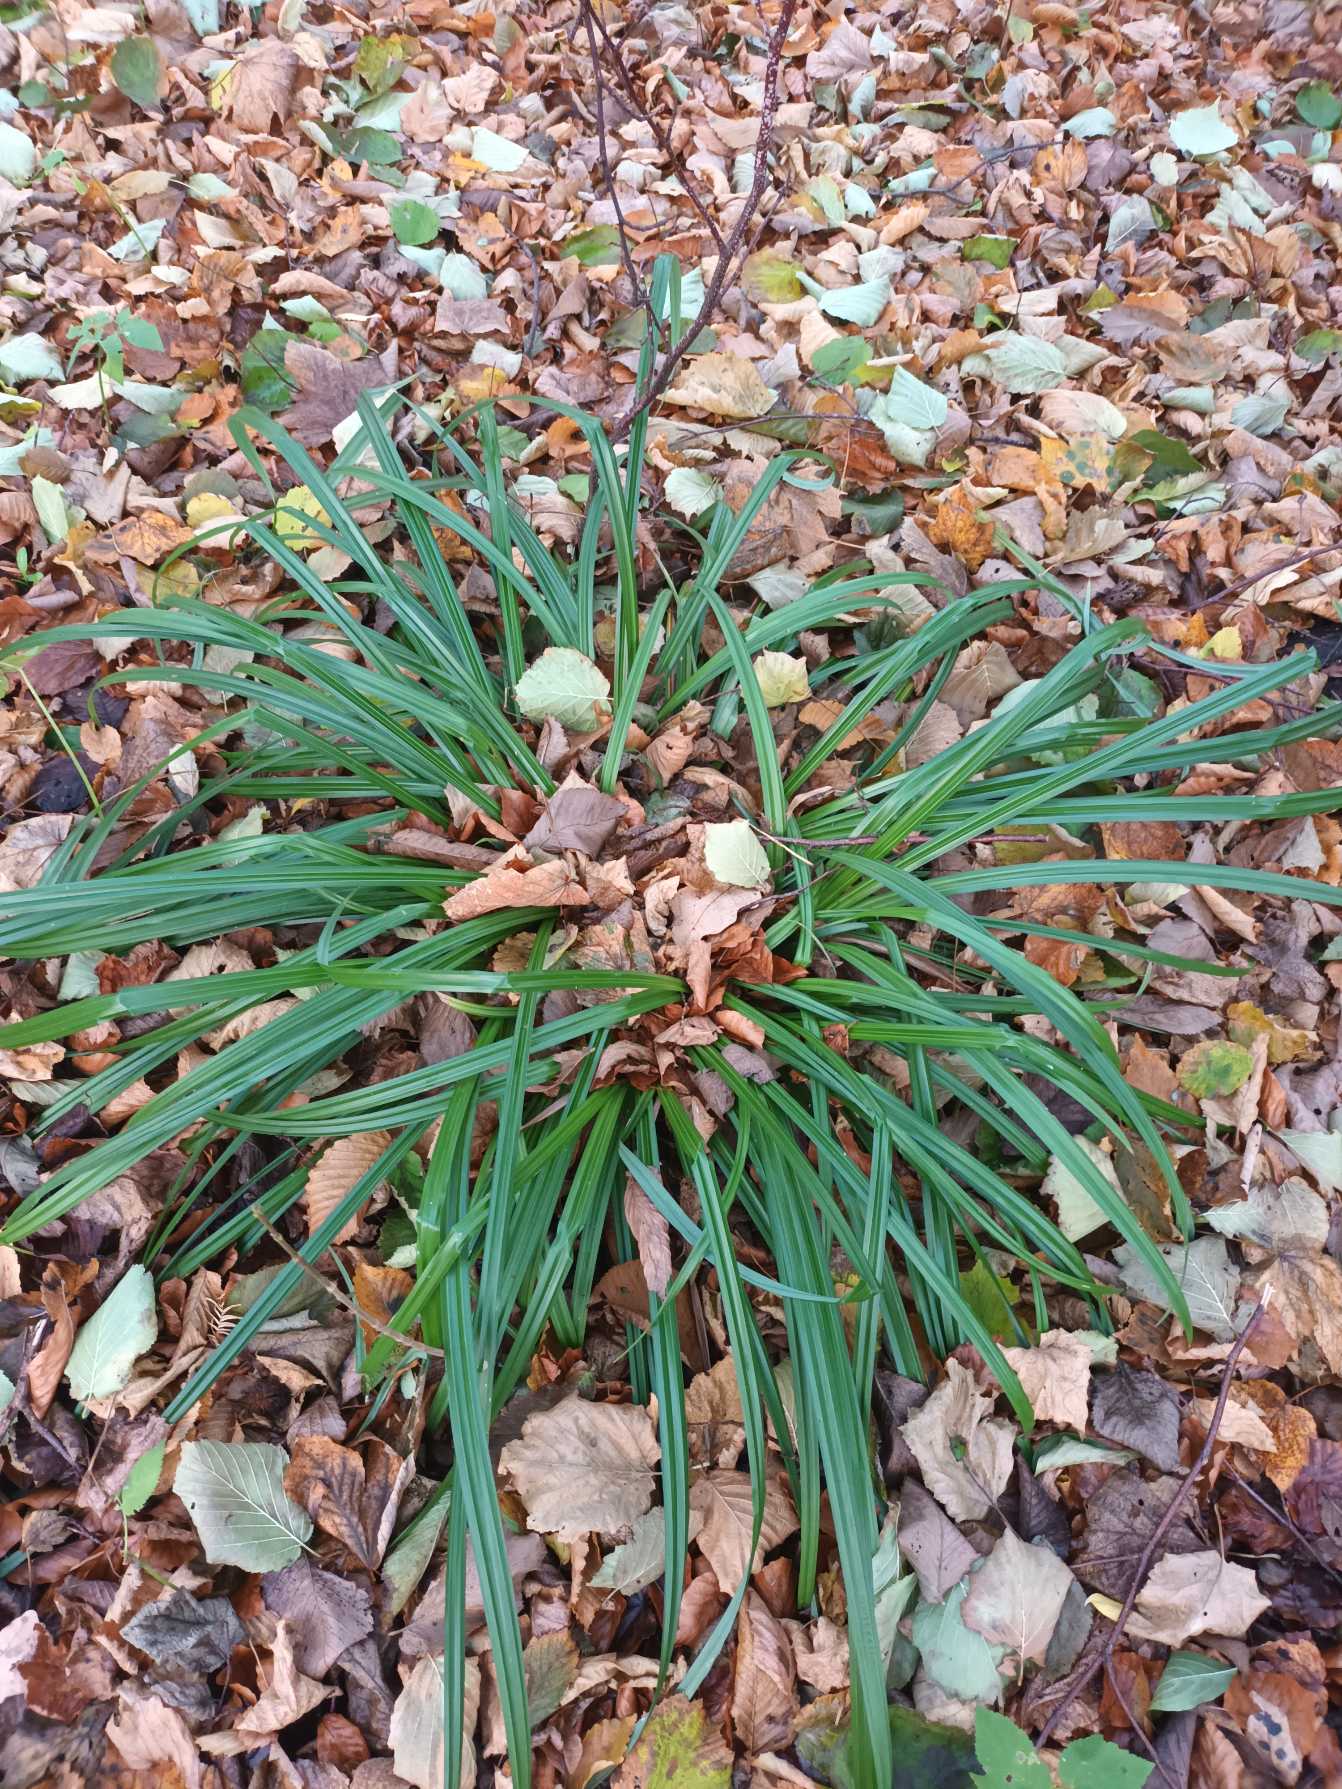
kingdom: Plantae
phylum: Tracheophyta
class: Liliopsida
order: Poales
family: Cyperaceae
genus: Carex
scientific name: Carex pendula
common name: Kæmpe-star
